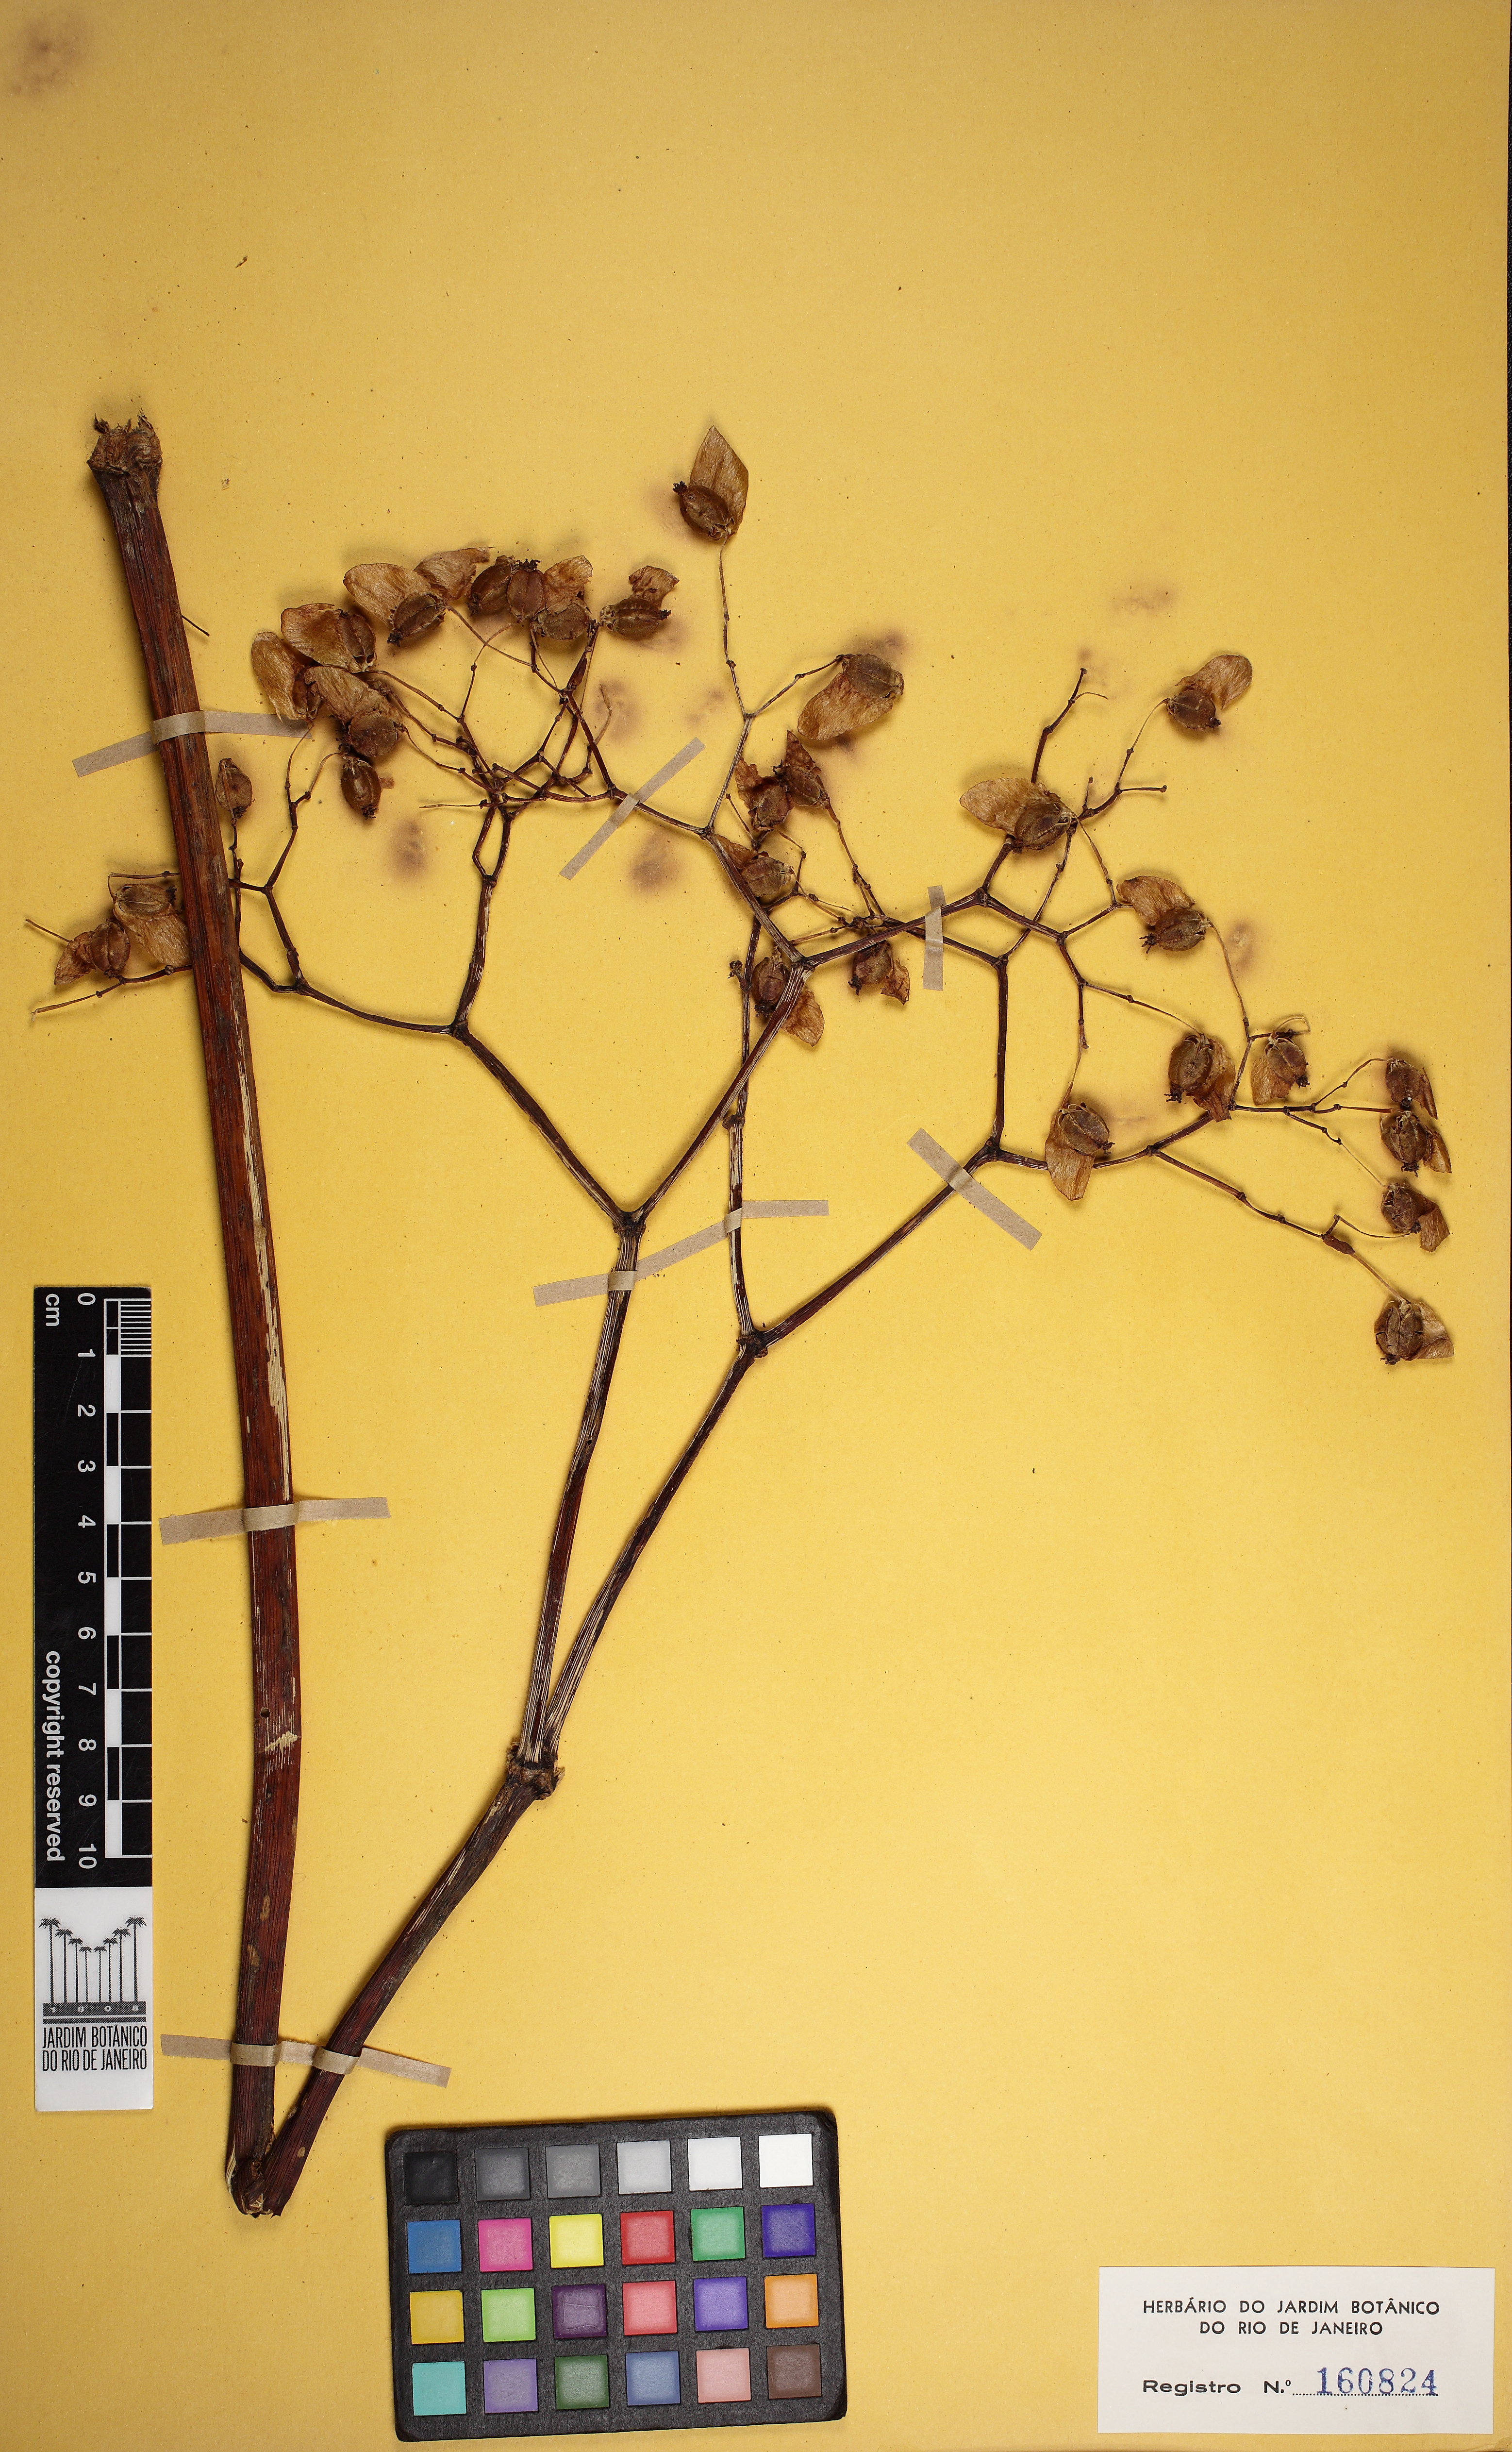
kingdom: Plantae
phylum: Tracheophyta
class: Magnoliopsida
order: Cucurbitales
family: Begoniaceae
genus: Begonia
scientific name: Begonia valdensium
